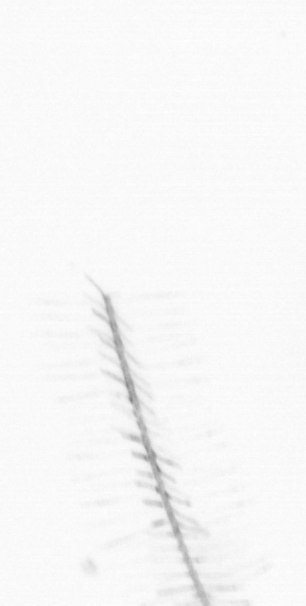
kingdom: Chromista
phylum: Ochrophyta
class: Bacillariophyceae
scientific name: Bacillariophyceae
